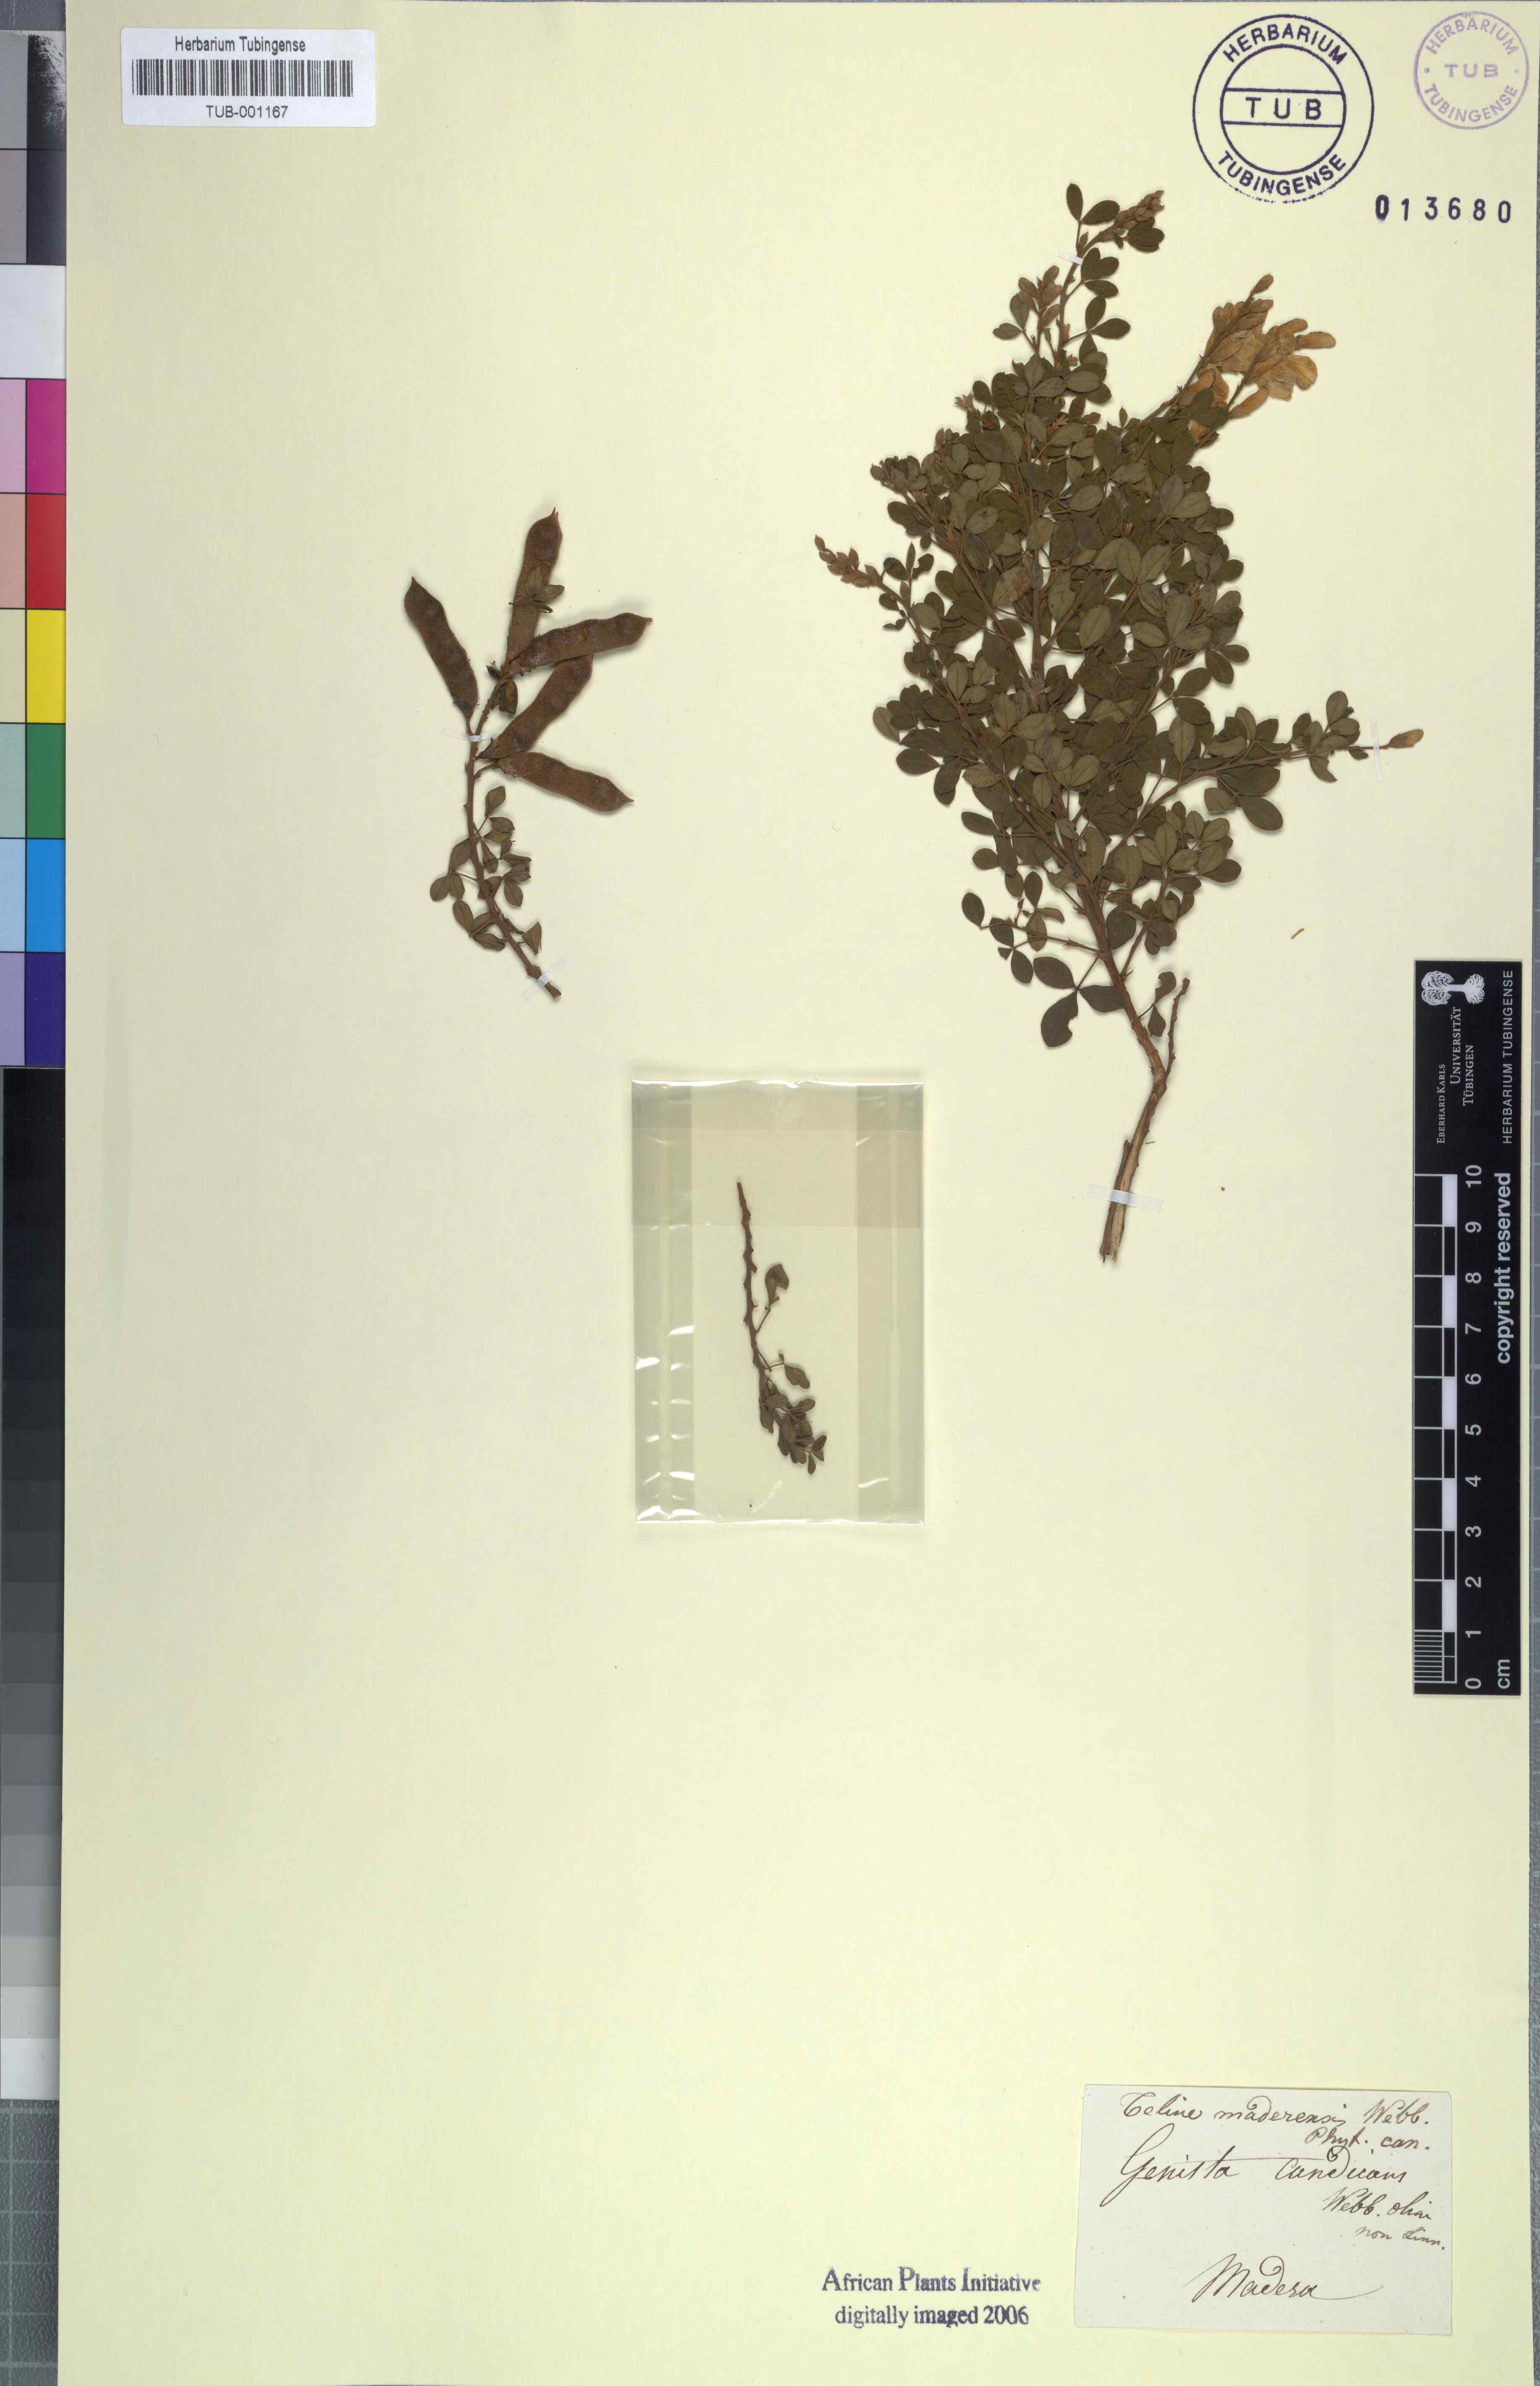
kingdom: Plantae
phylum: Tracheophyta
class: Magnoliopsida
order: Fabales
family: Fabaceae
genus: Cytisus
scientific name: Cytisus maderensis
